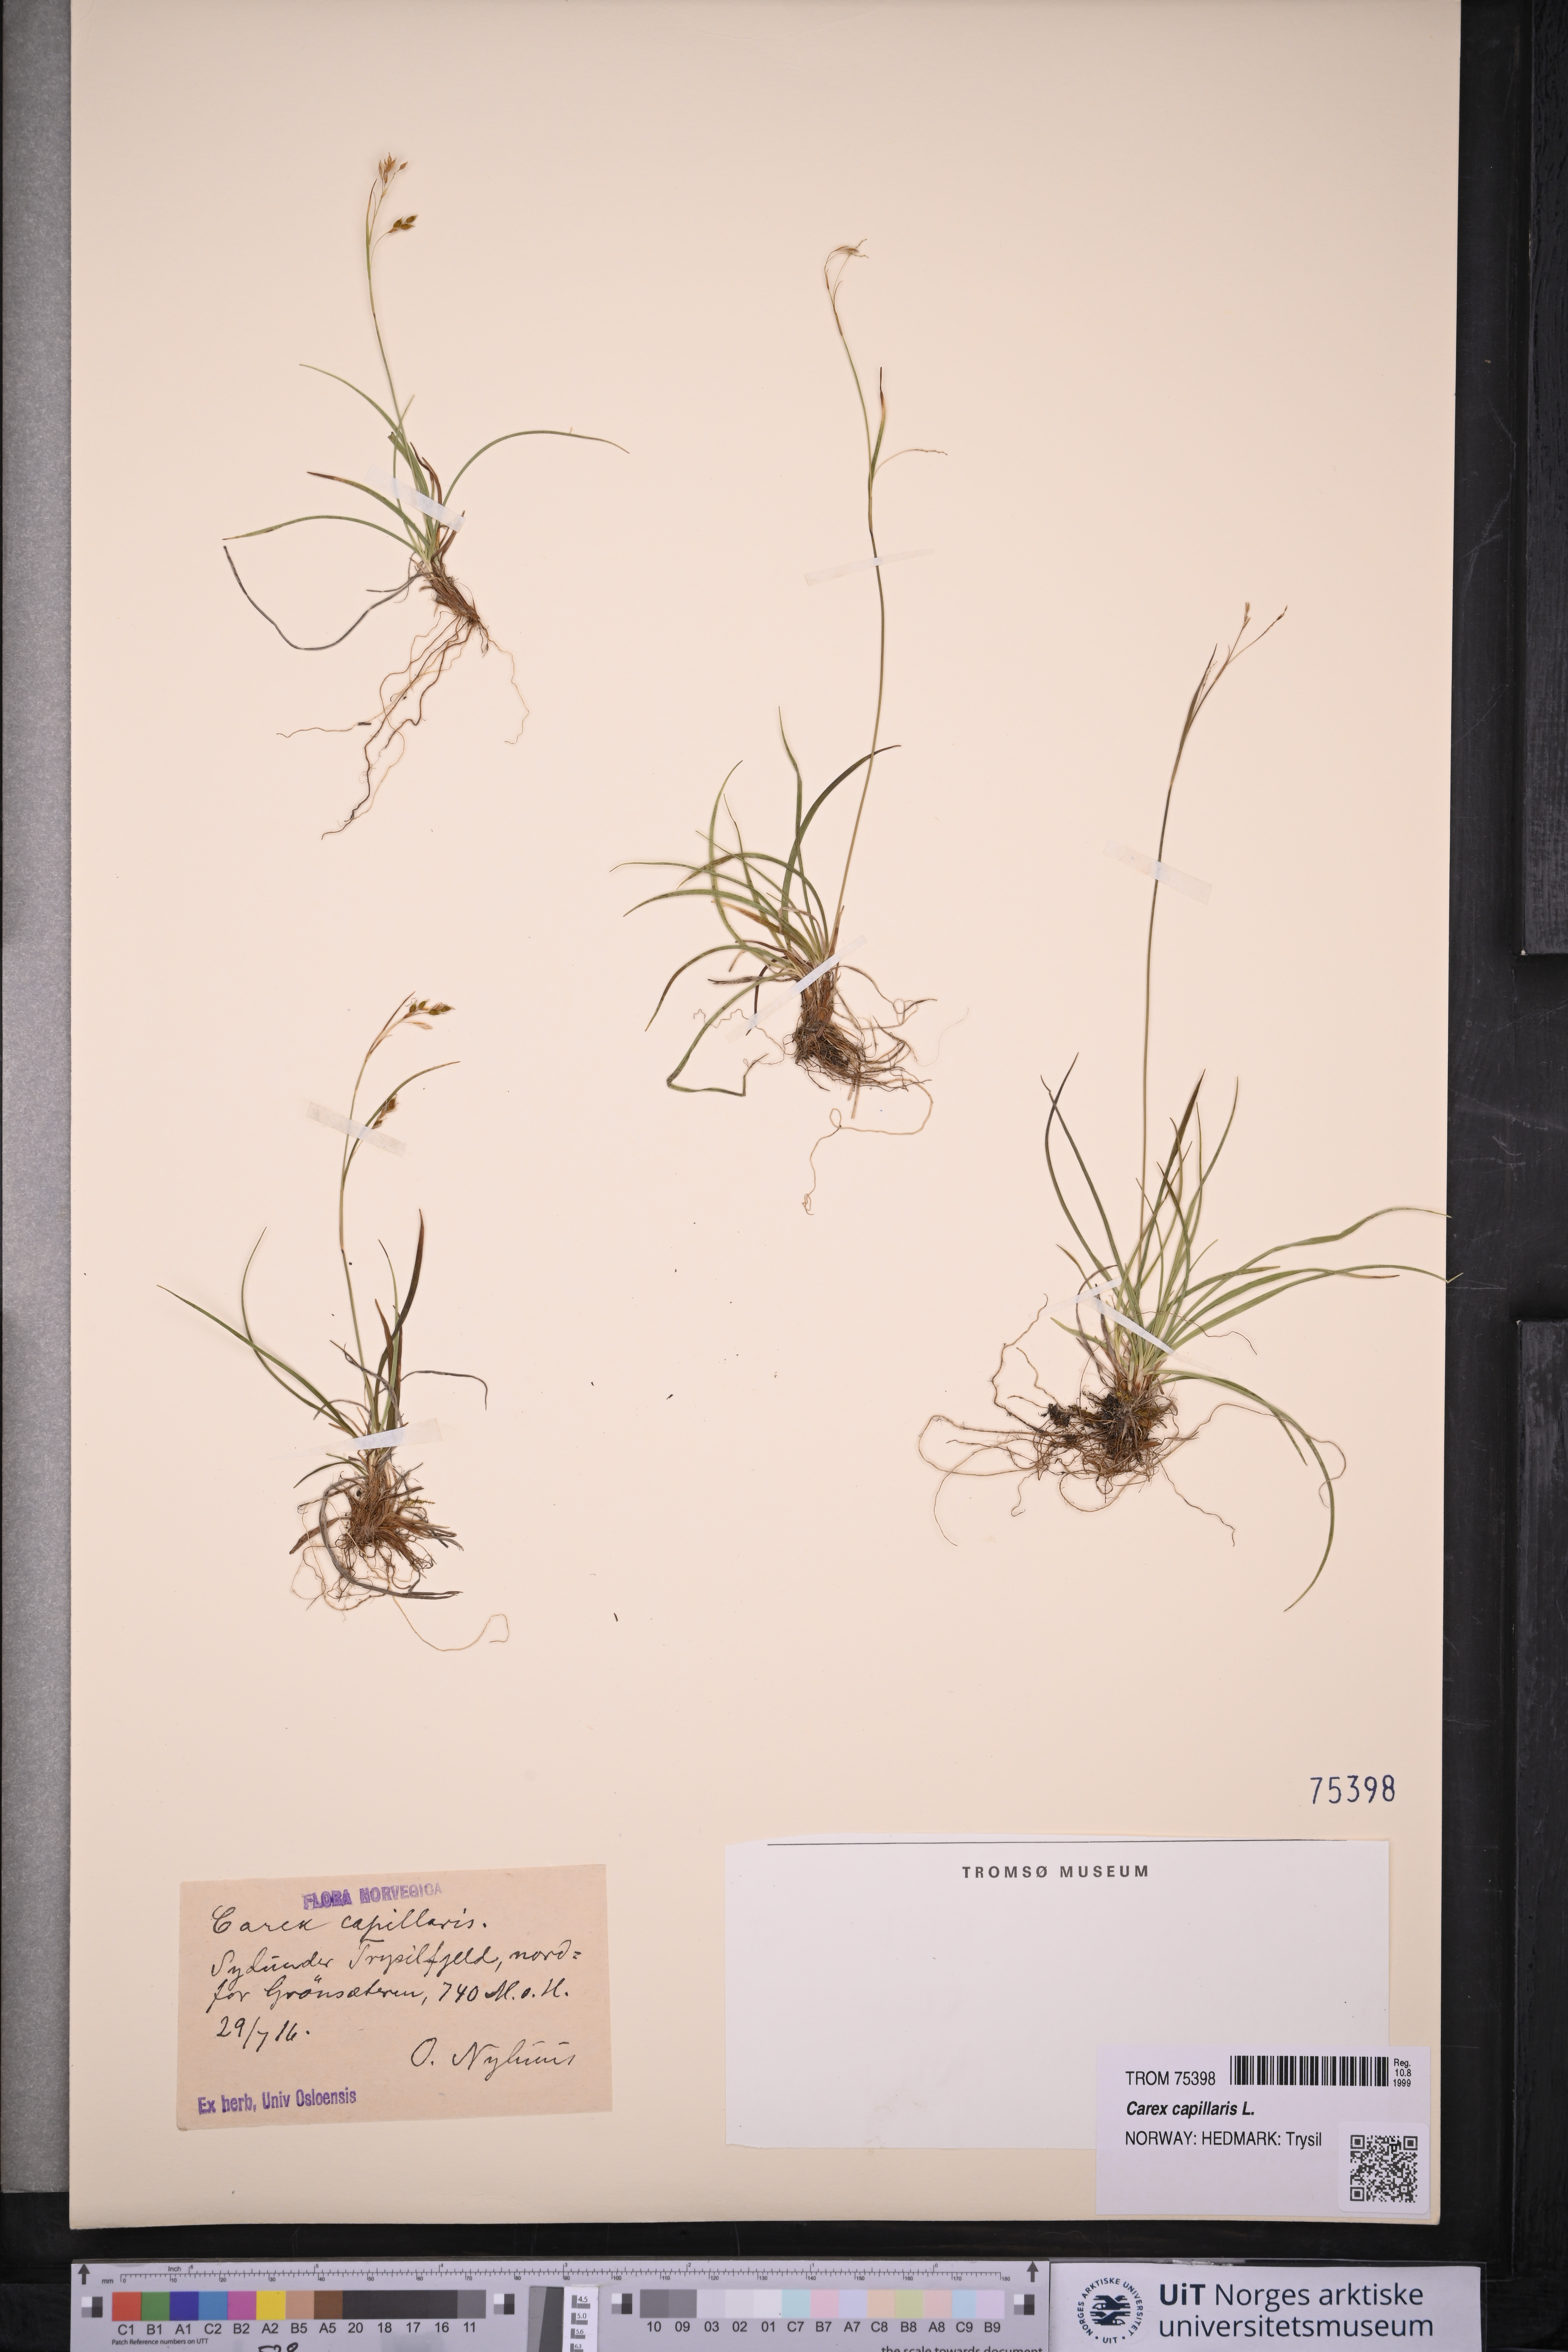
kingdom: Plantae
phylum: Tracheophyta
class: Liliopsida
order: Poales
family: Cyperaceae
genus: Carex
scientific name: Carex capillaris
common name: Hair sedge
